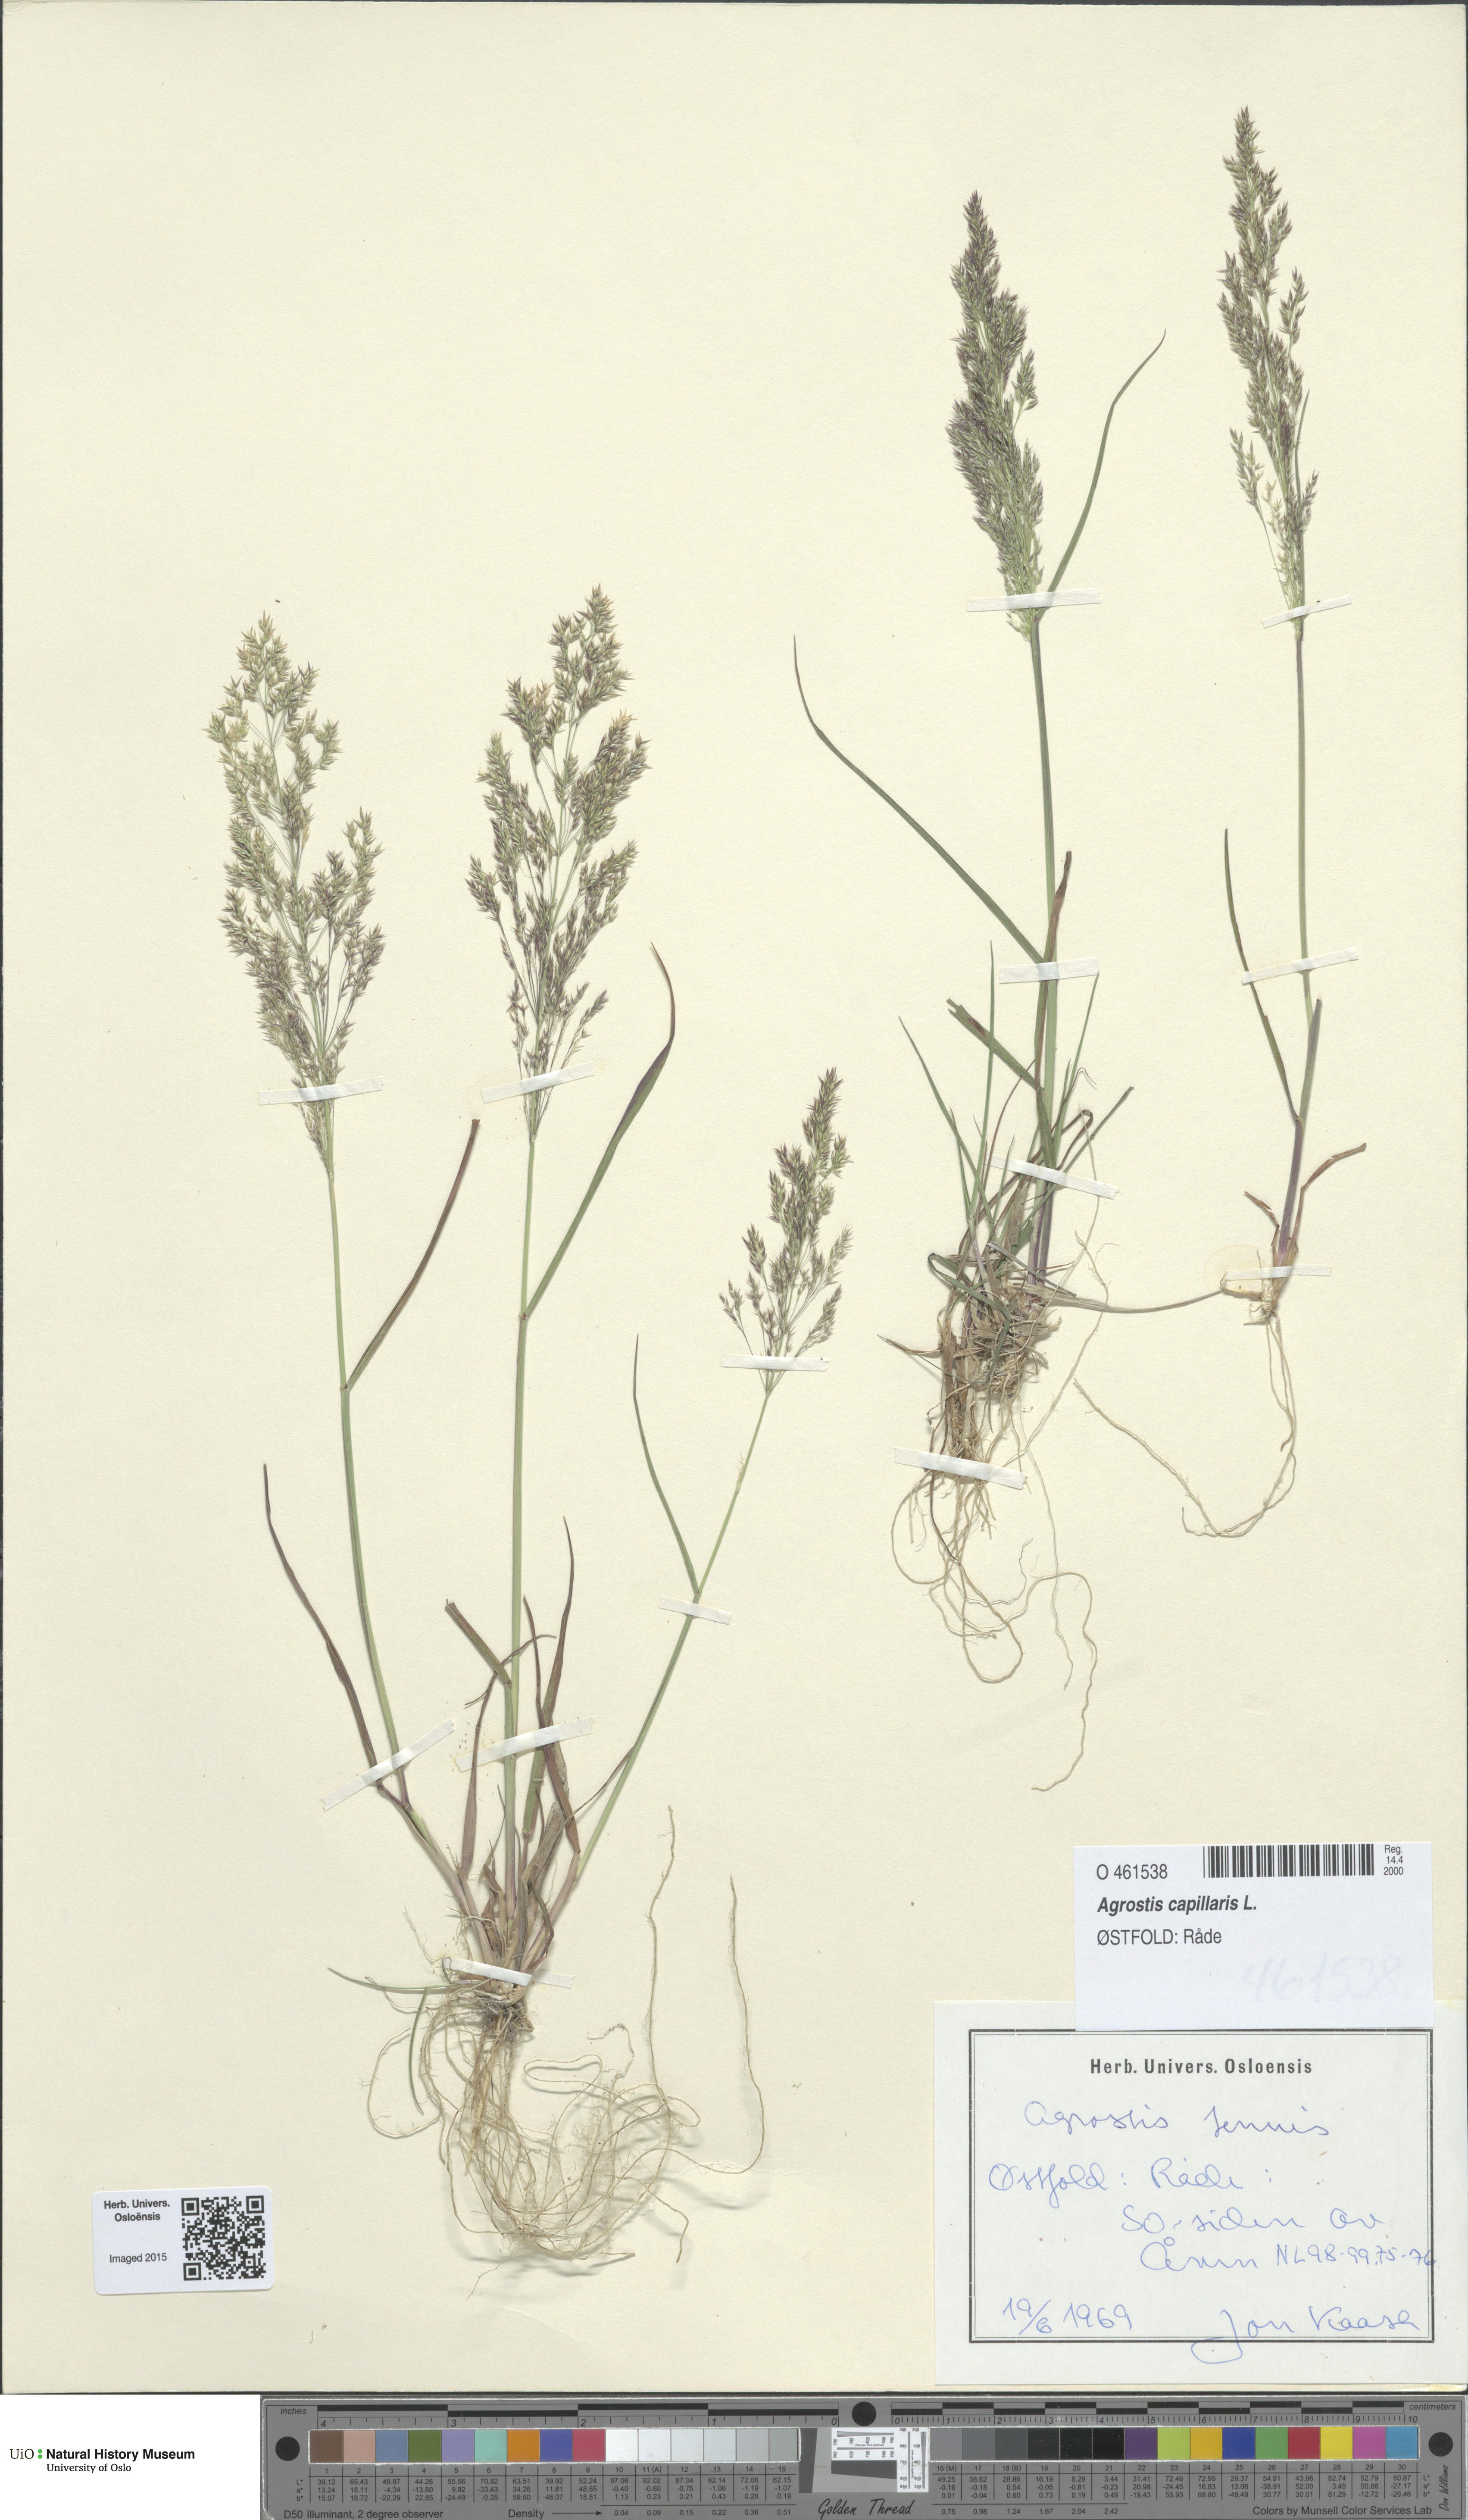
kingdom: Plantae
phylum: Tracheophyta
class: Liliopsida
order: Poales
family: Poaceae
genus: Agrostis
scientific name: Agrostis capillaris
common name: Colonial bentgrass
